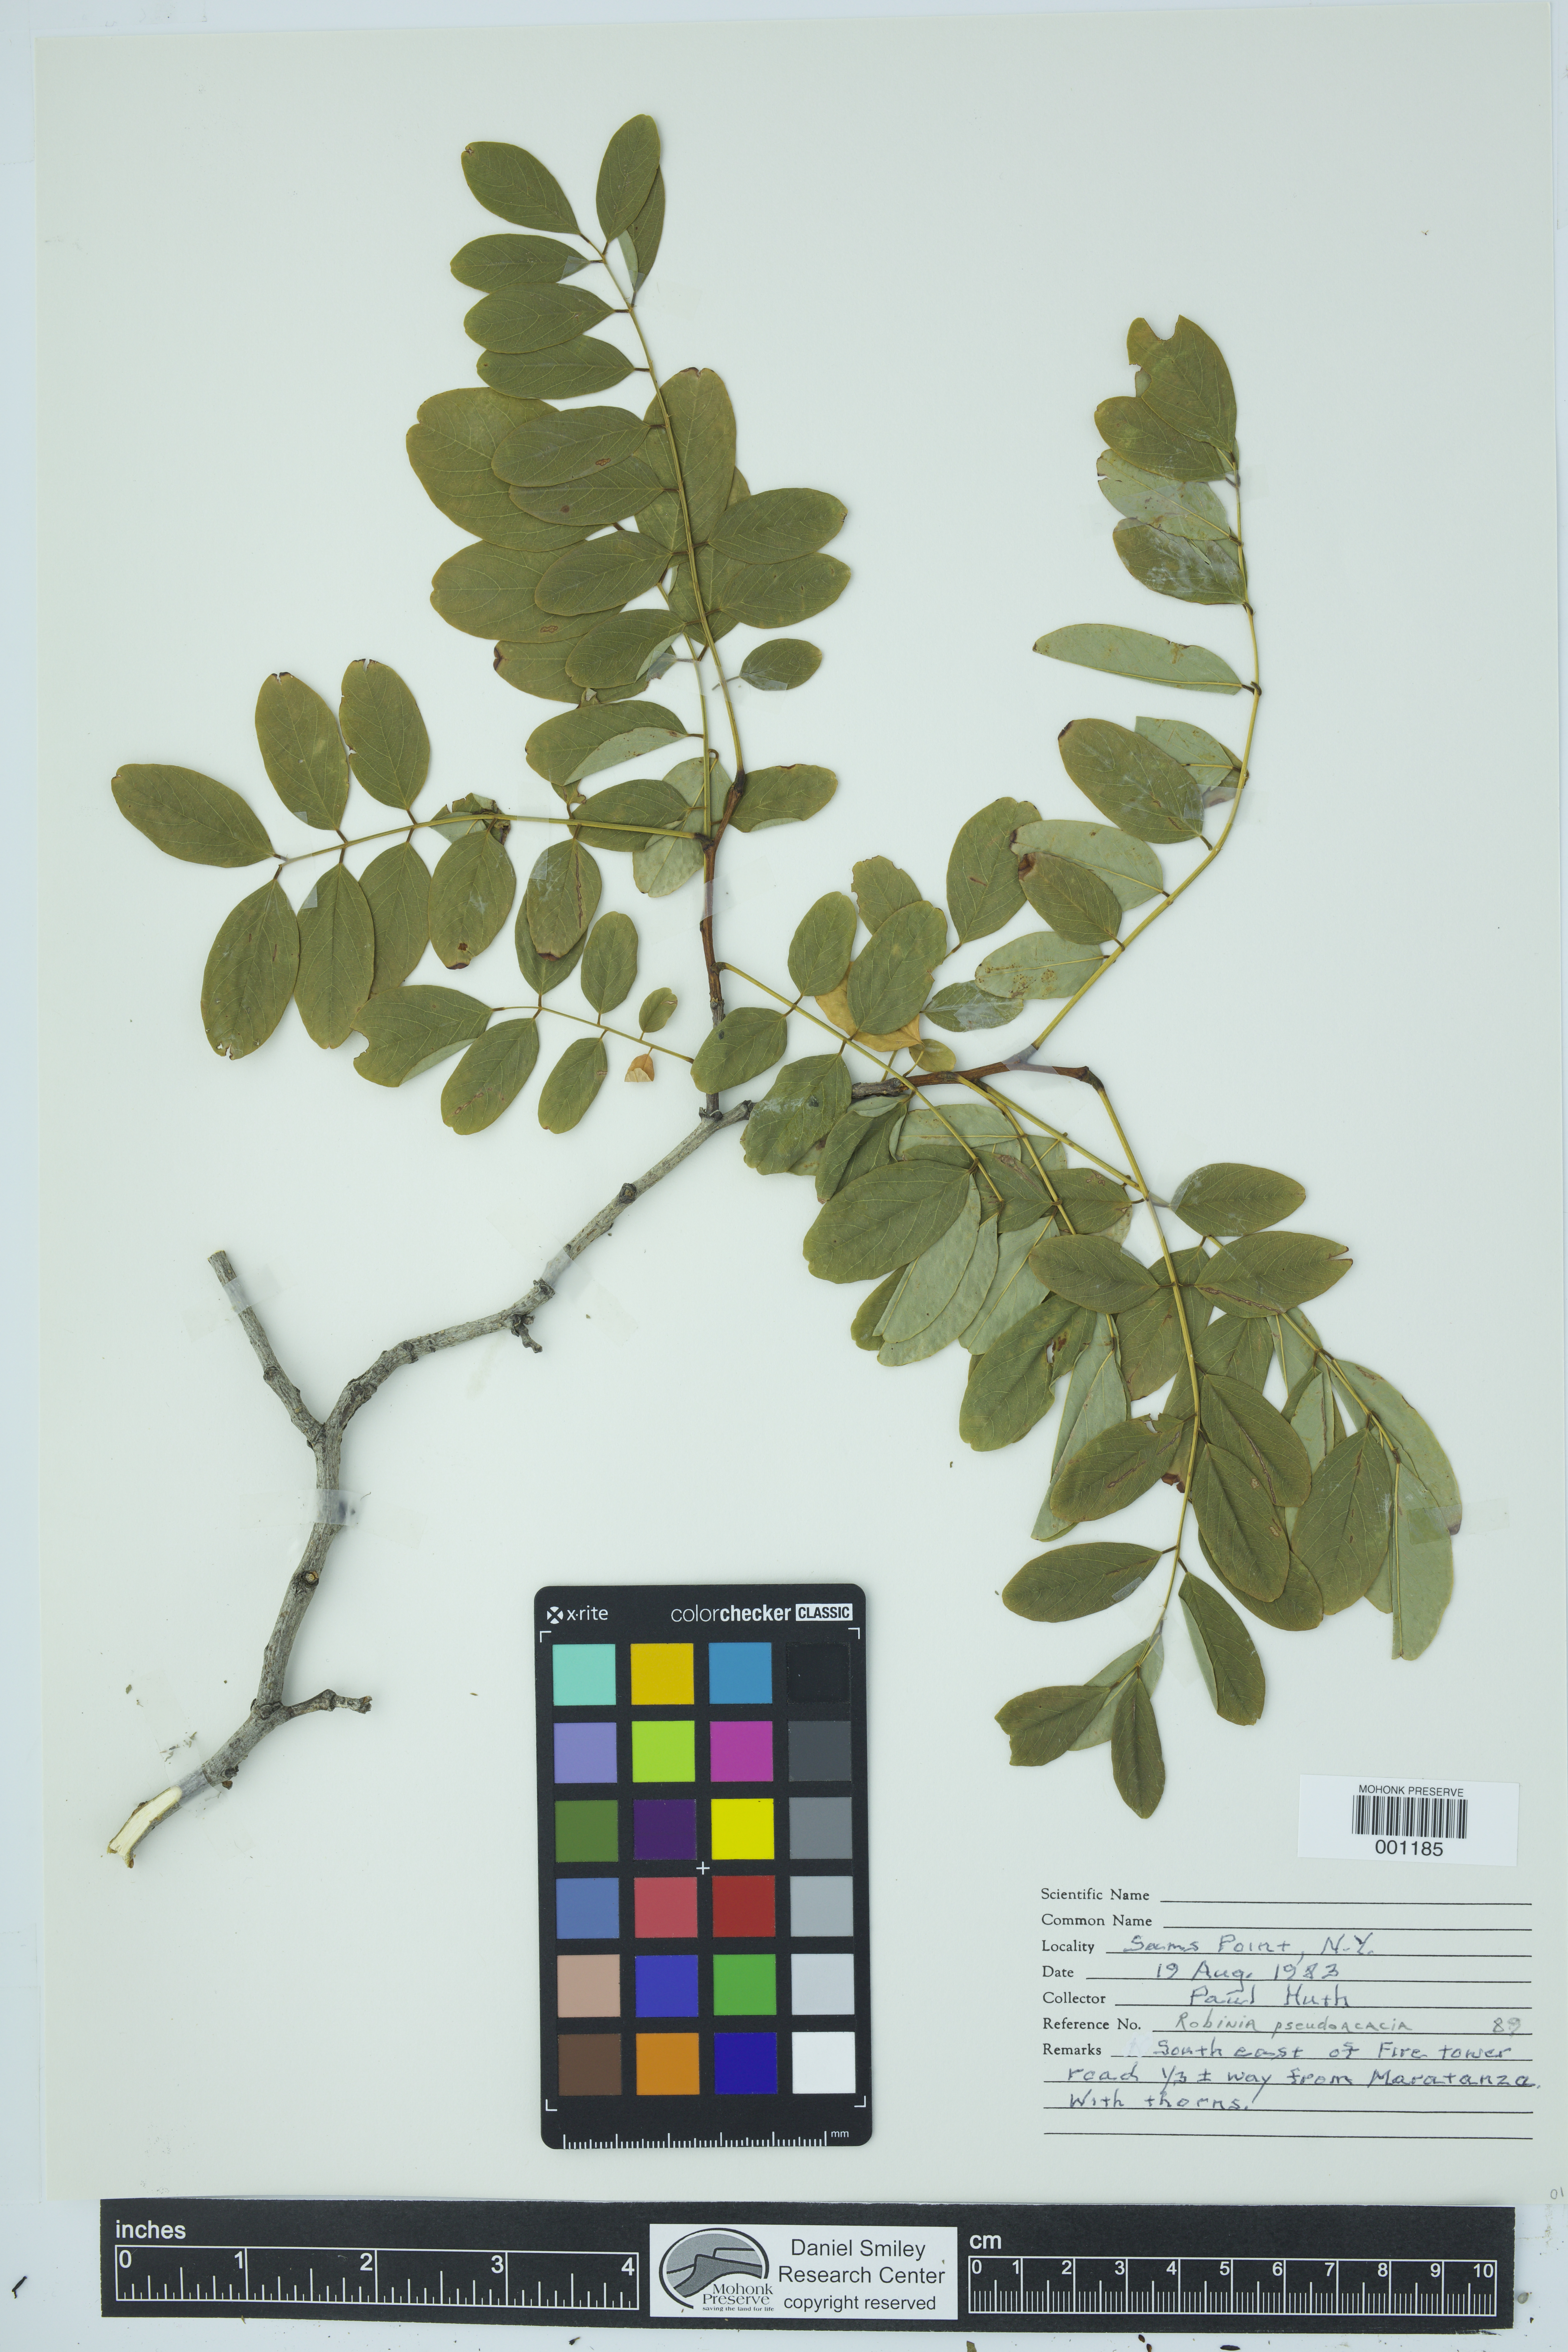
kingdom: Plantae
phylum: Tracheophyta
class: Magnoliopsida
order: Fabales
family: Fabaceae
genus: Robinia
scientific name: Robinia pseudoacacia
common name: Black locust
